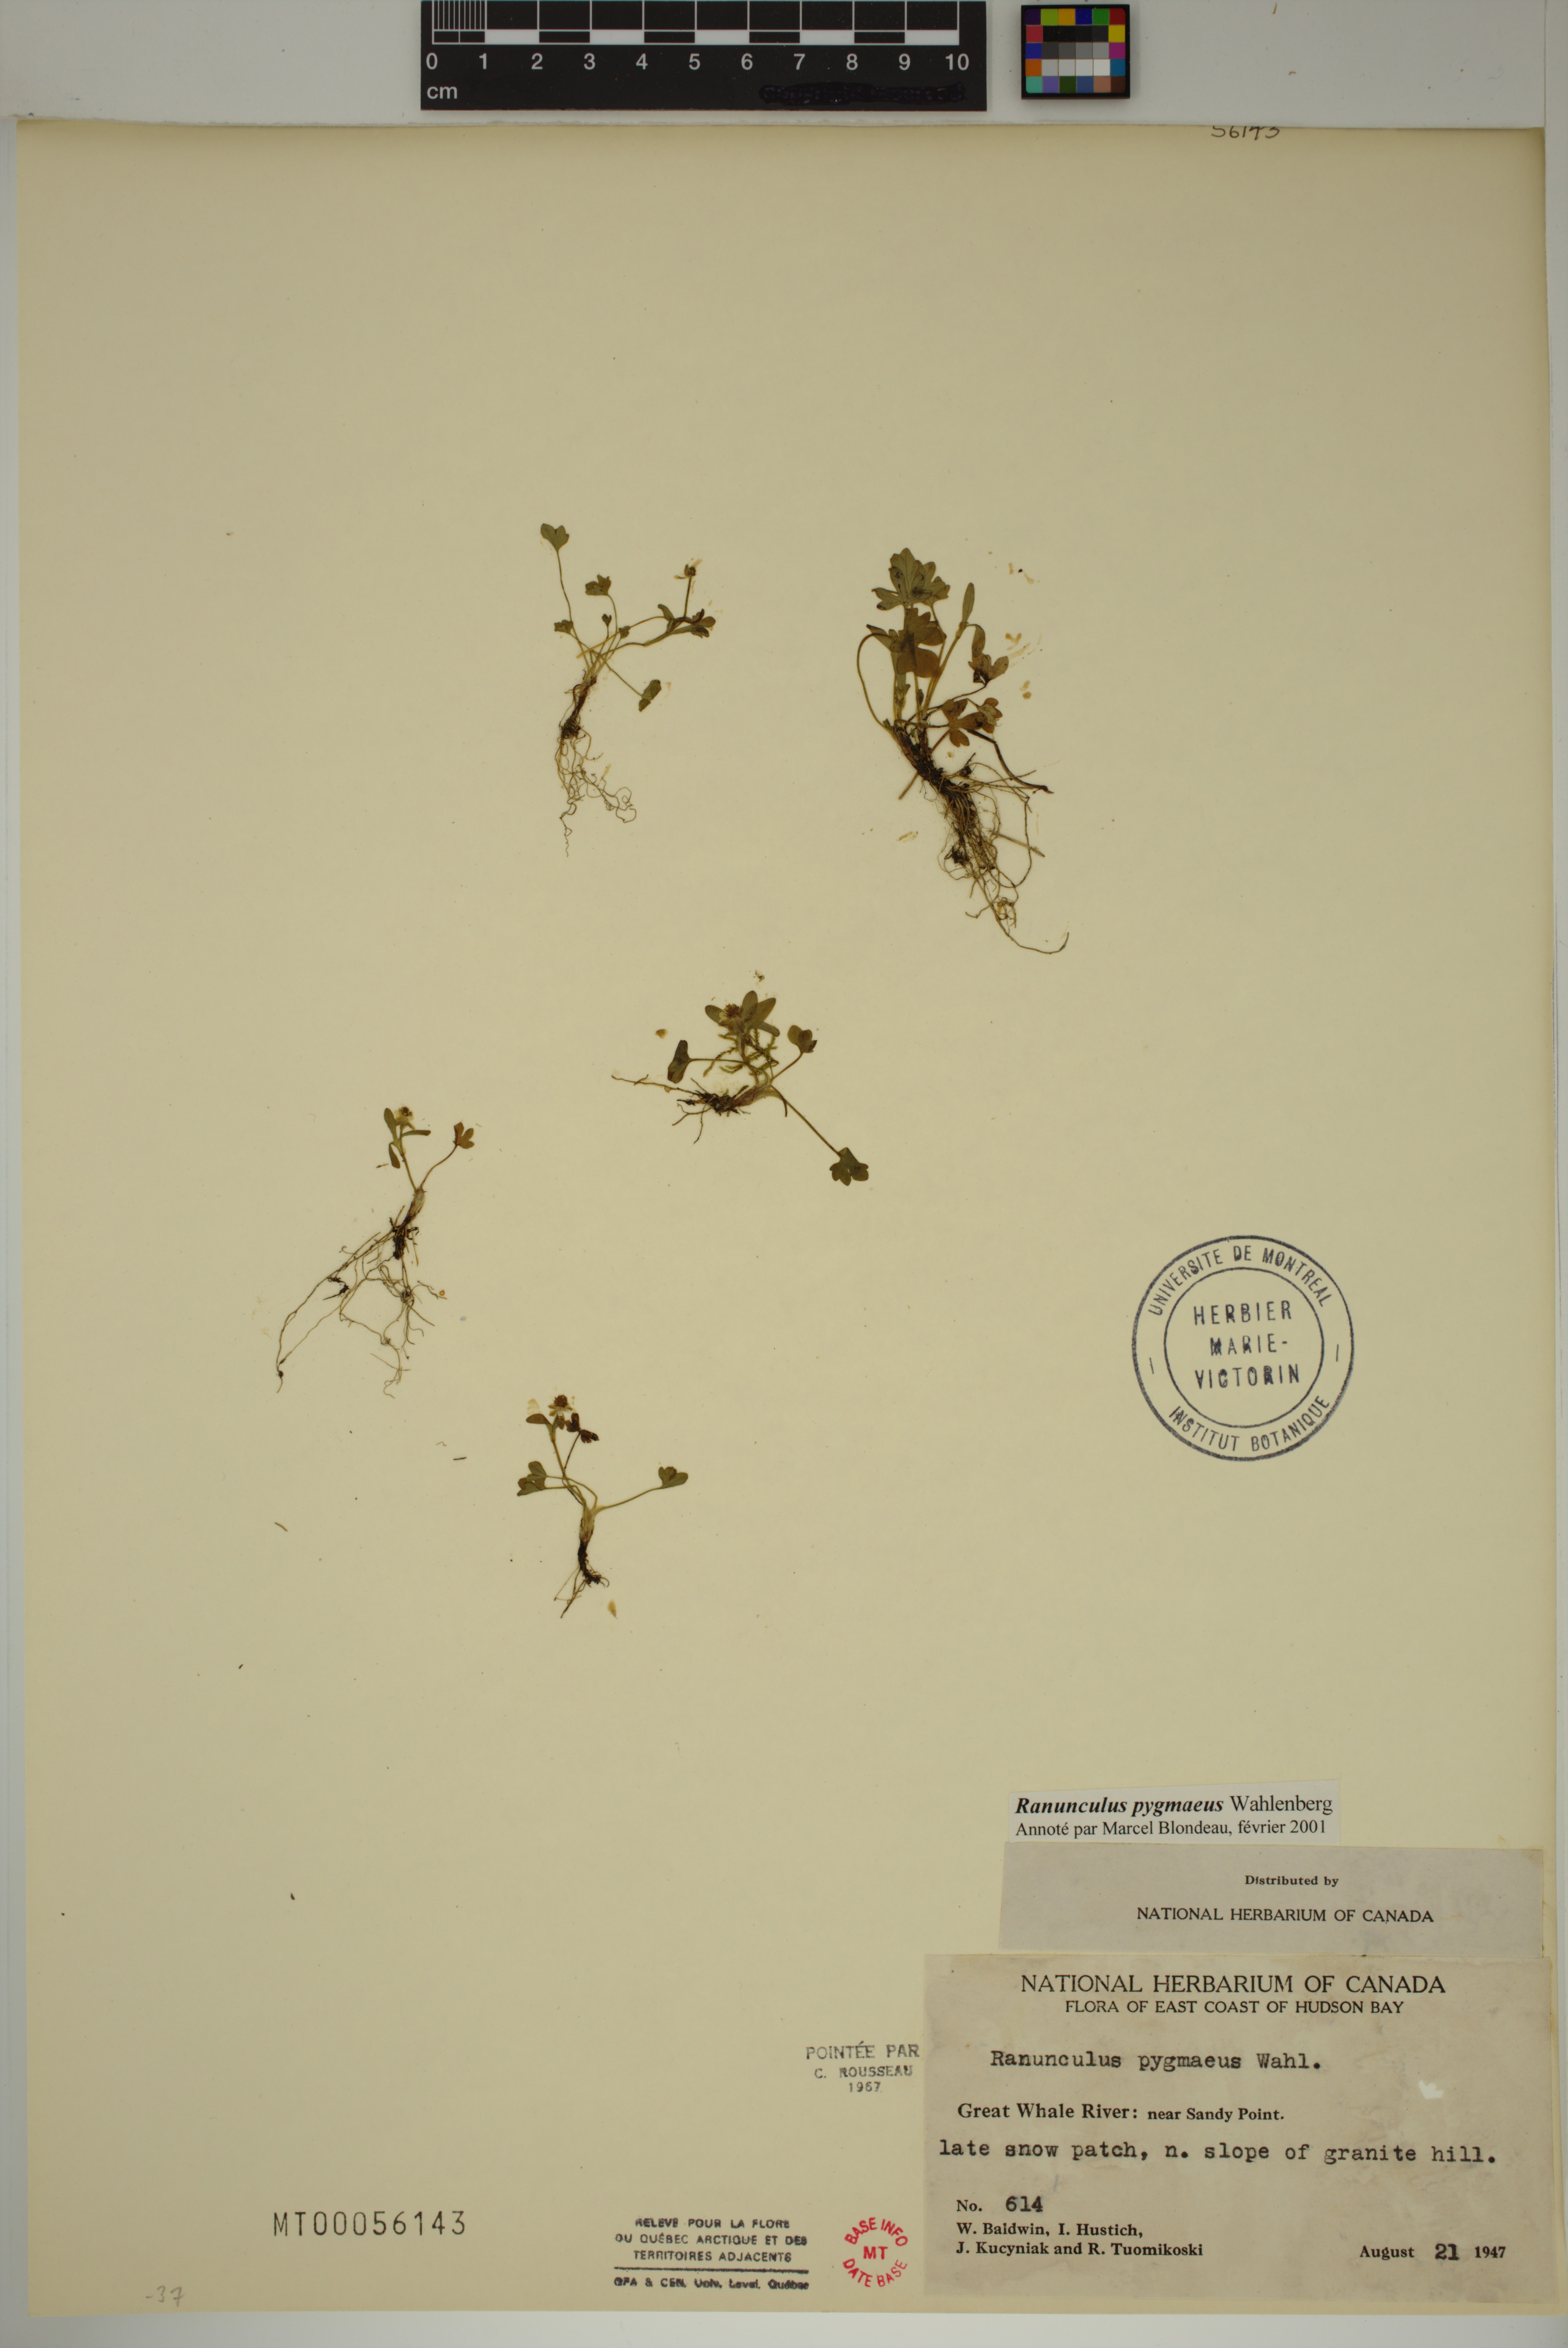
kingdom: Plantae
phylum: Tracheophyta
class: Magnoliopsida
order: Ranunculales
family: Ranunculaceae
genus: Ranunculus
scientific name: Ranunculus pygmaeus
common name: Dwarf buttercup
